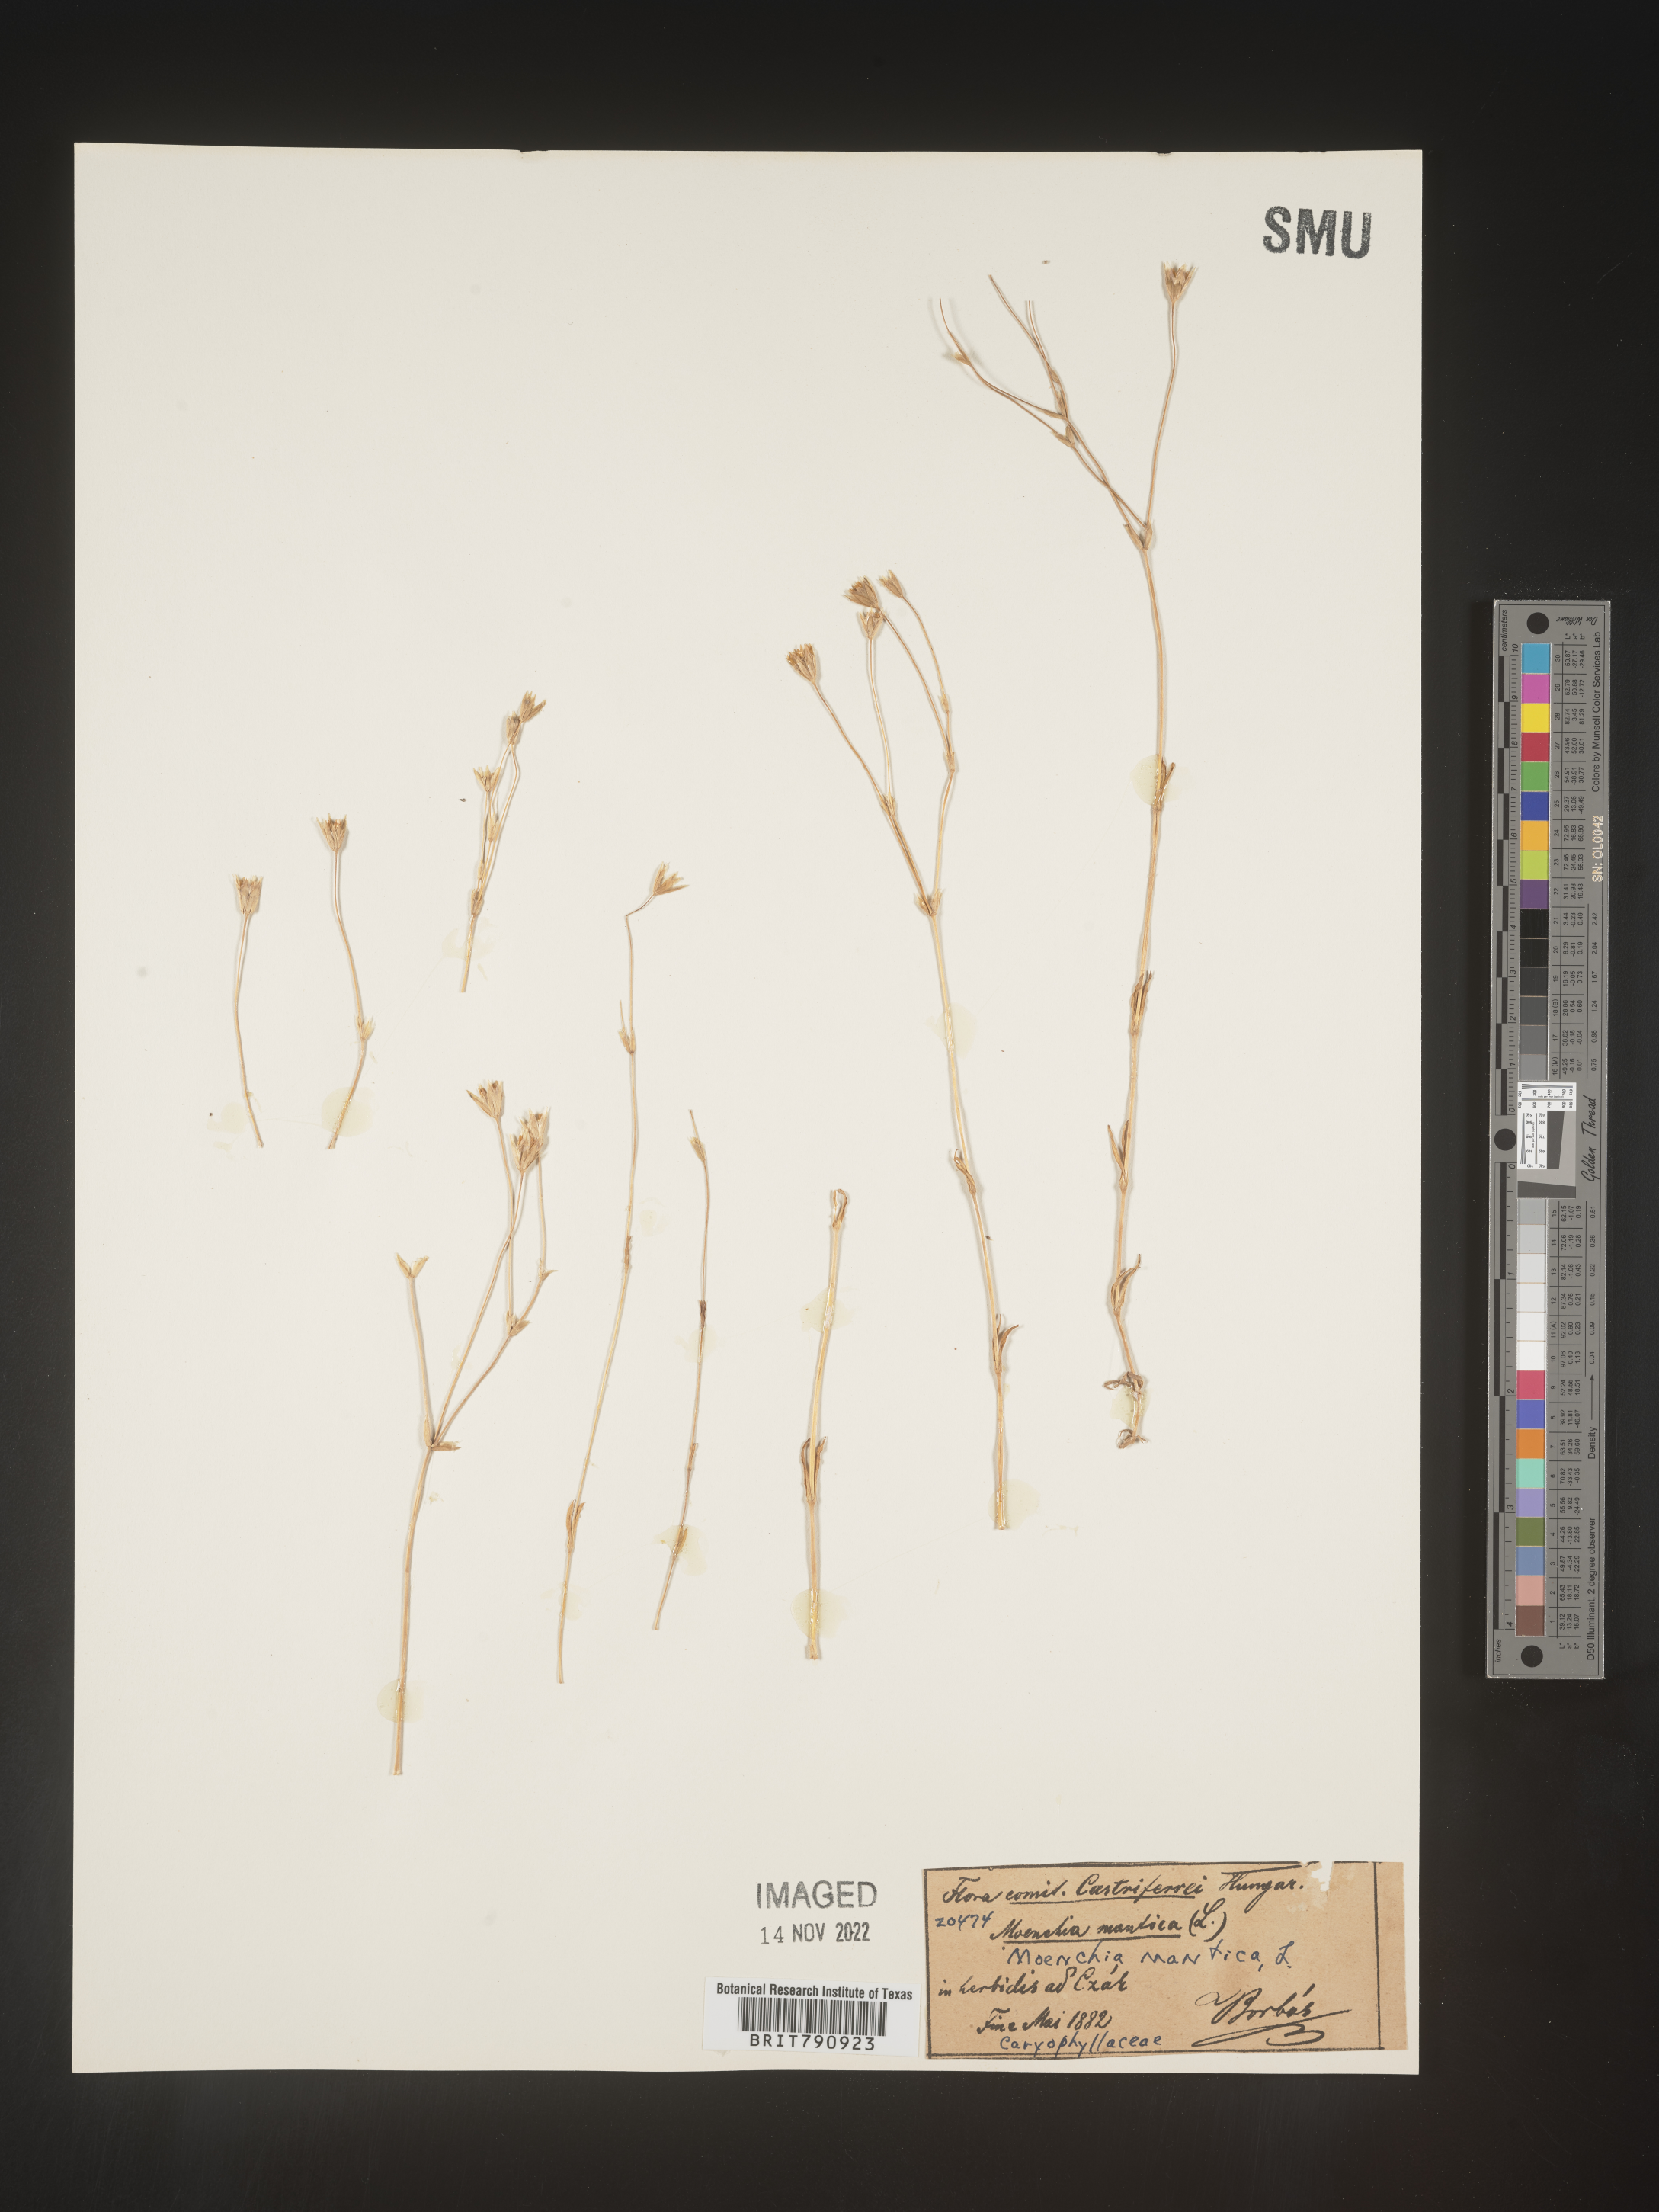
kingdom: Plantae
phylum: Tracheophyta
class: Magnoliopsida
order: Caryophyllales
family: Caryophyllaceae
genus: Moenchia
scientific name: Moenchia
